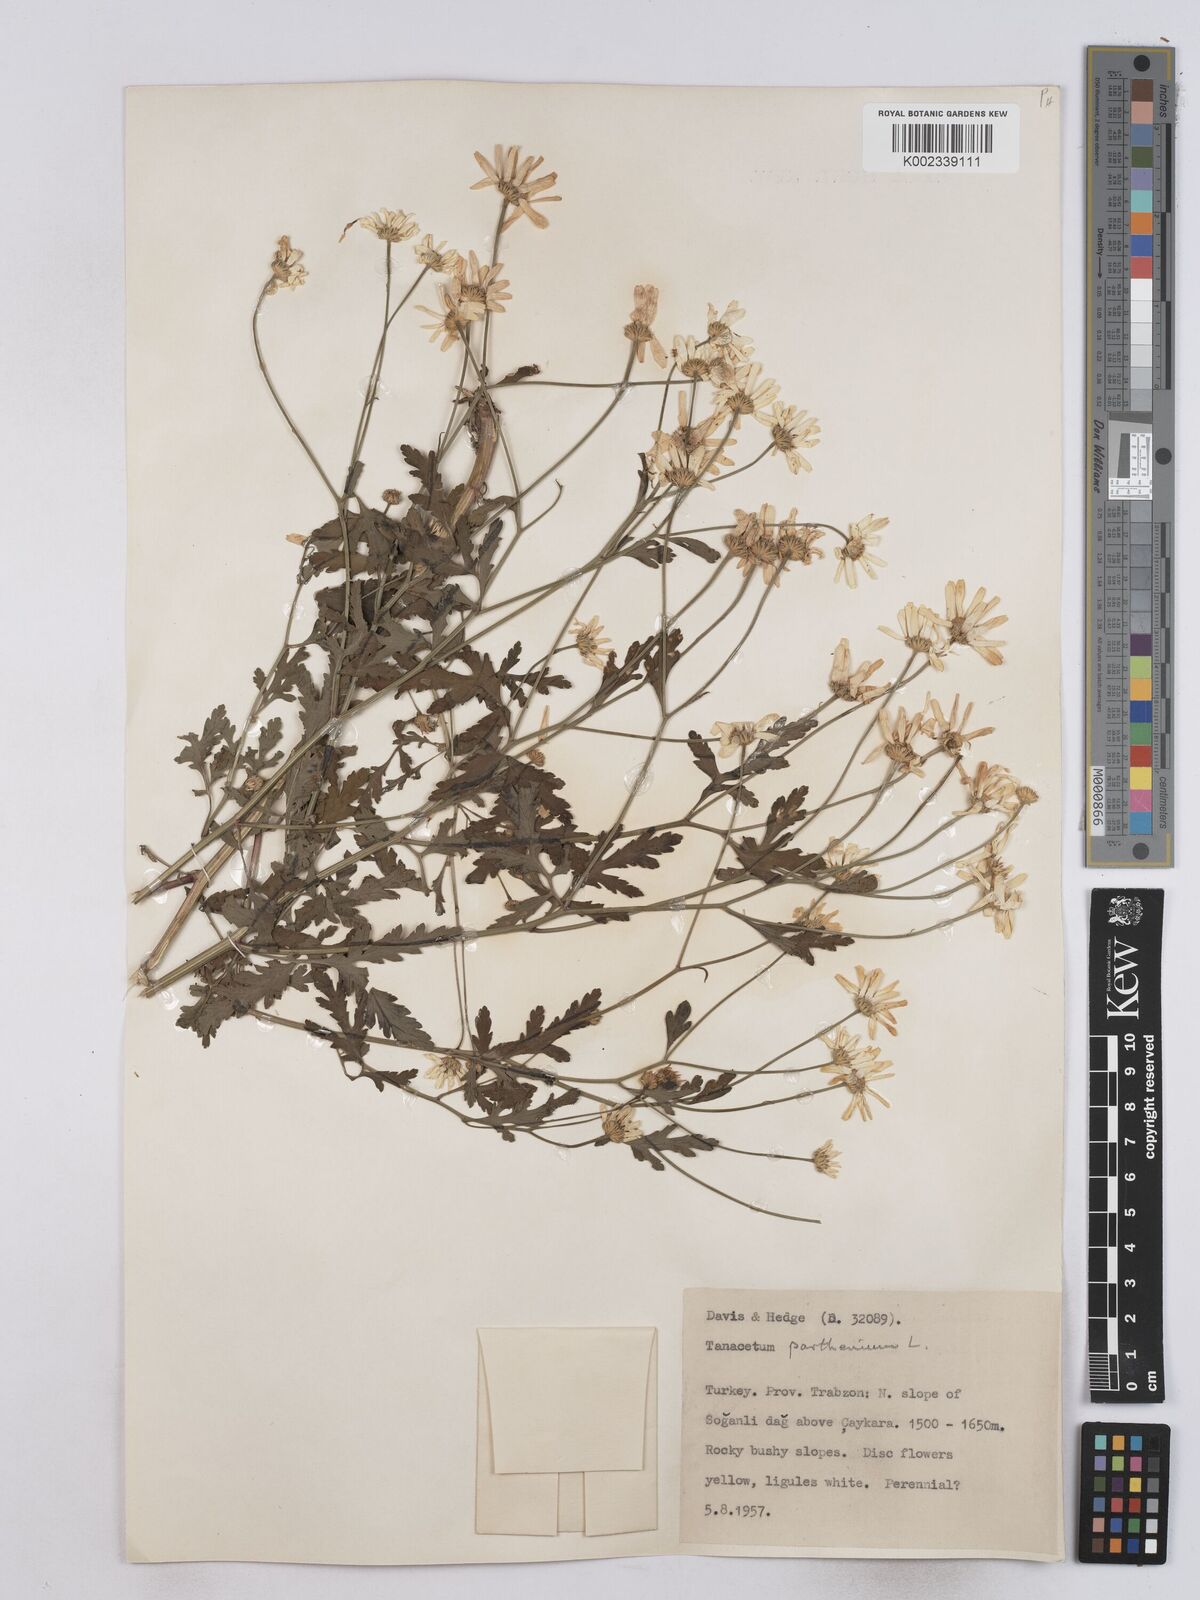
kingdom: Plantae
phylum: Tracheophyta
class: Magnoliopsida
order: Asterales
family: Asteraceae
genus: Tanacetum
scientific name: Tanacetum parthenium
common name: Feverfew
